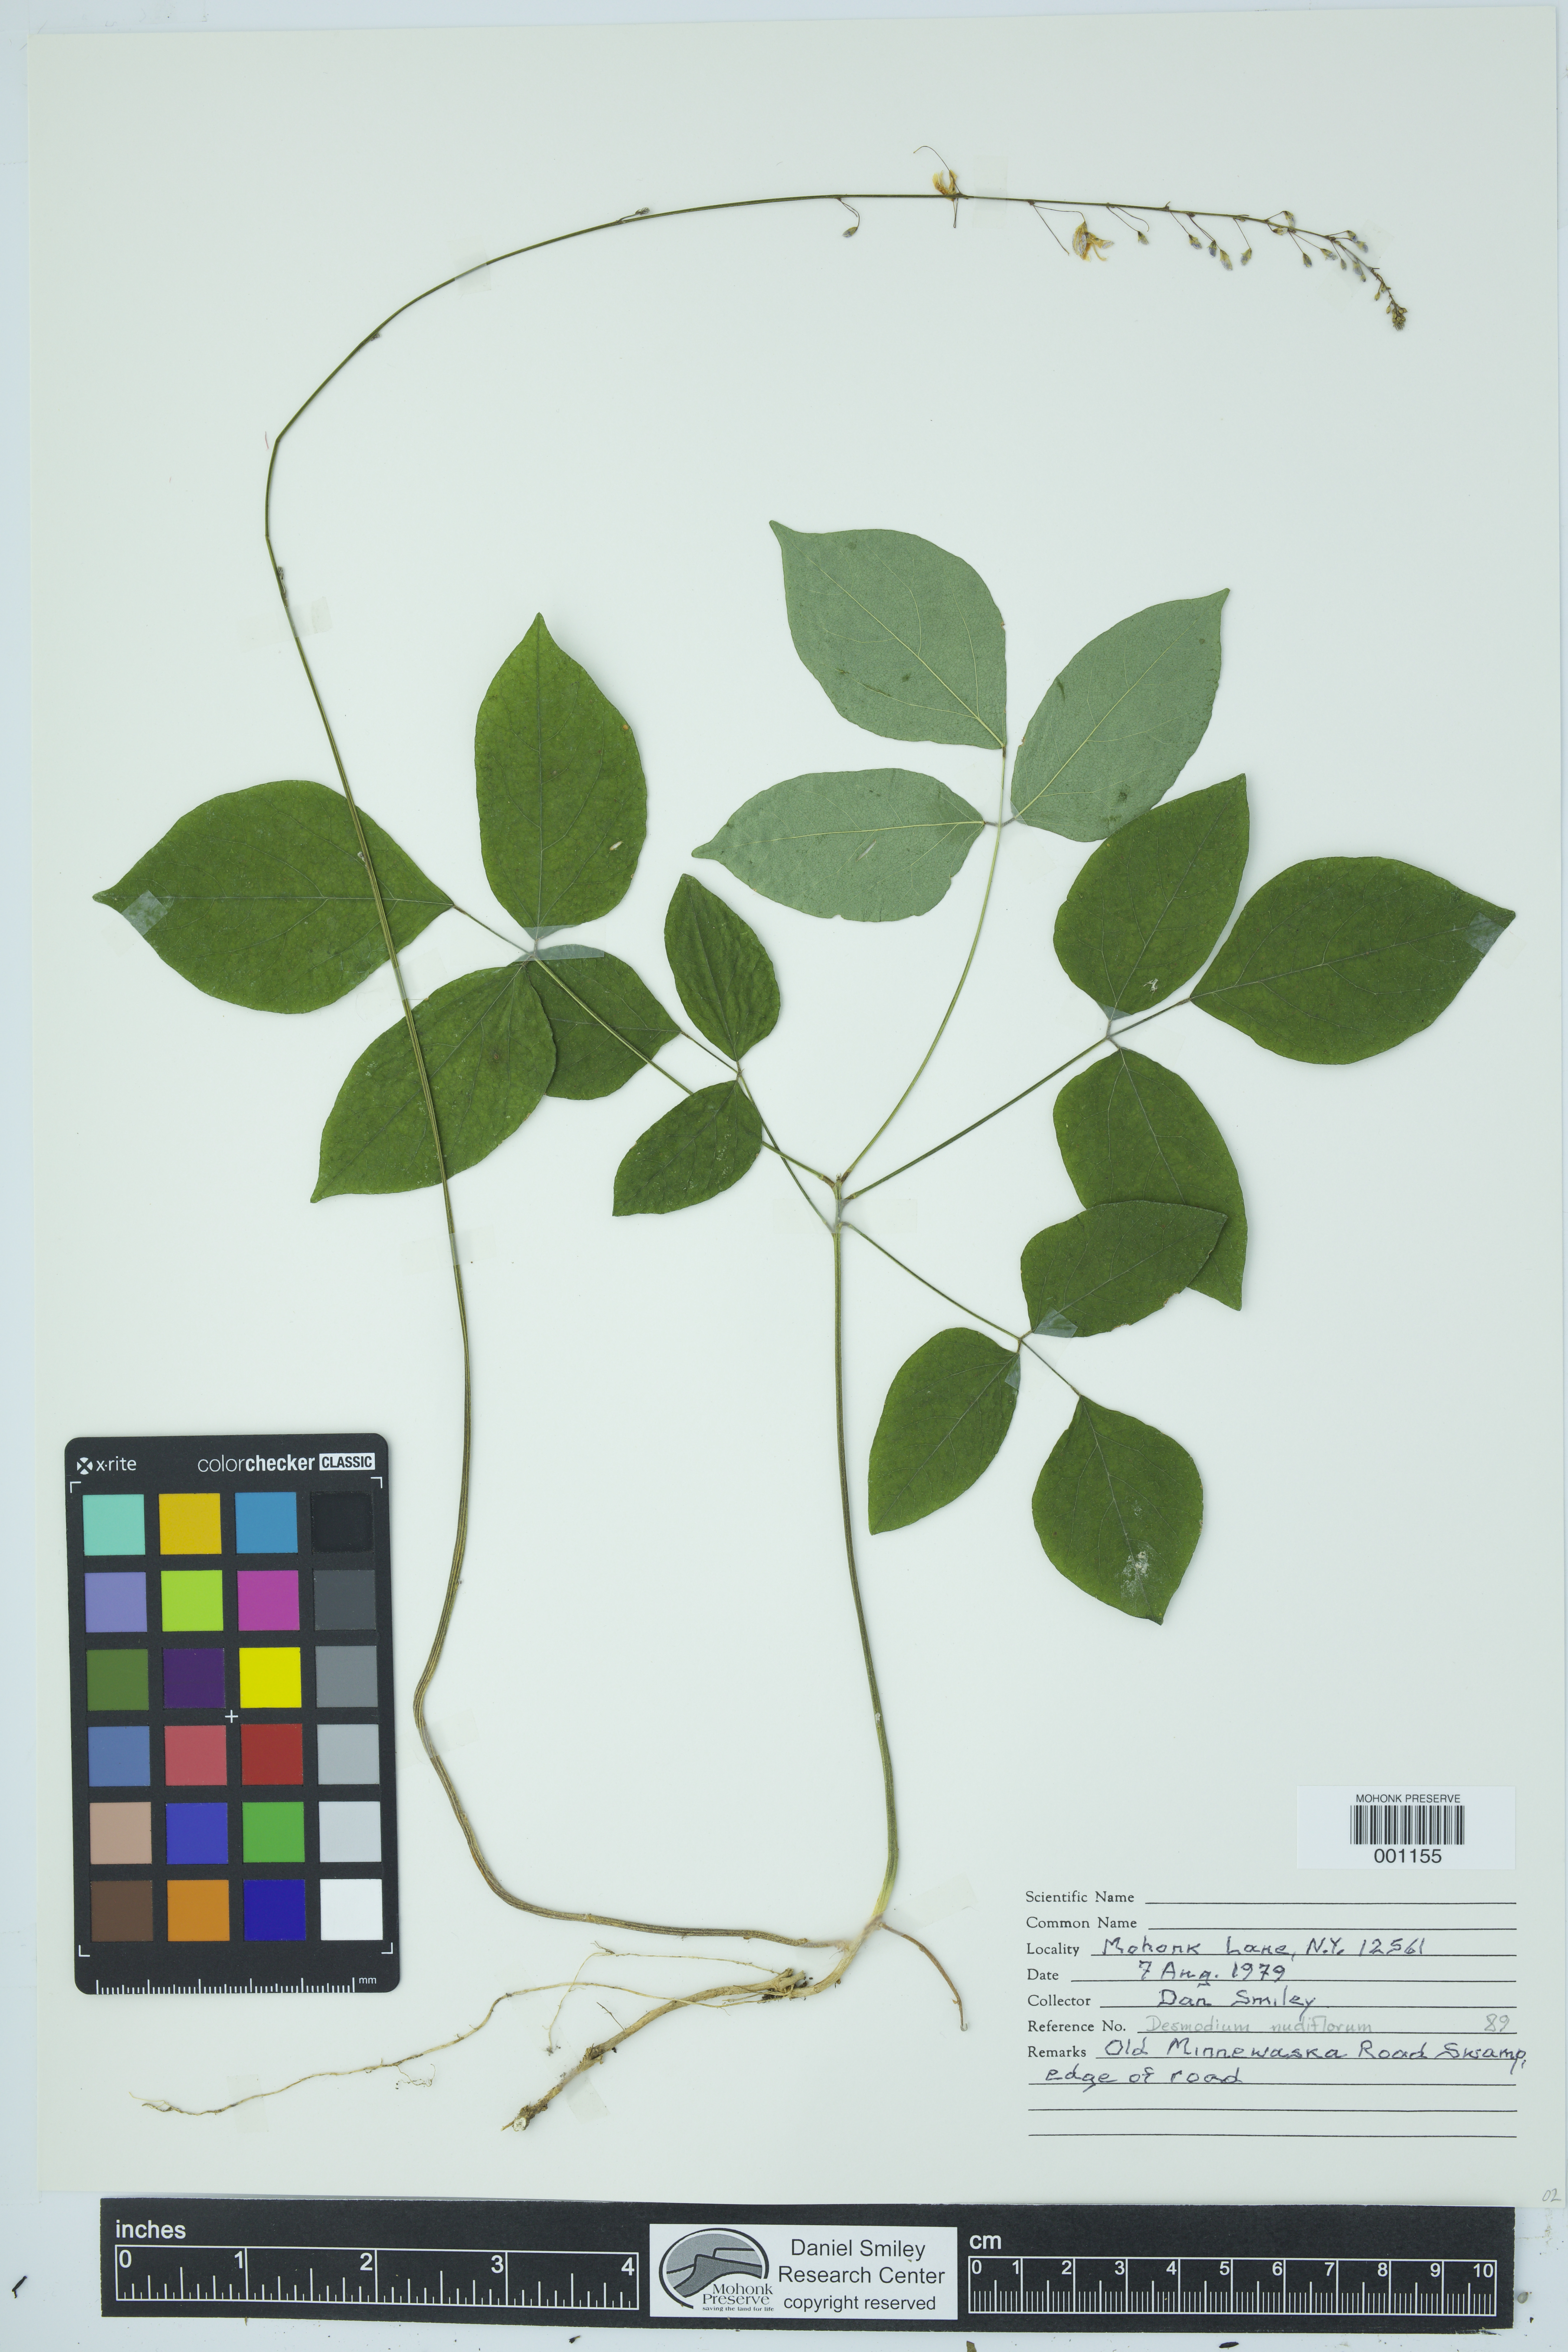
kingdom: Plantae
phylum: Tracheophyta
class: Magnoliopsida
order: Fabales
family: Fabaceae
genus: Hylodesmum
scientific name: Hylodesmum nudiflorum
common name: Bare-stemmed tick-trefoil
